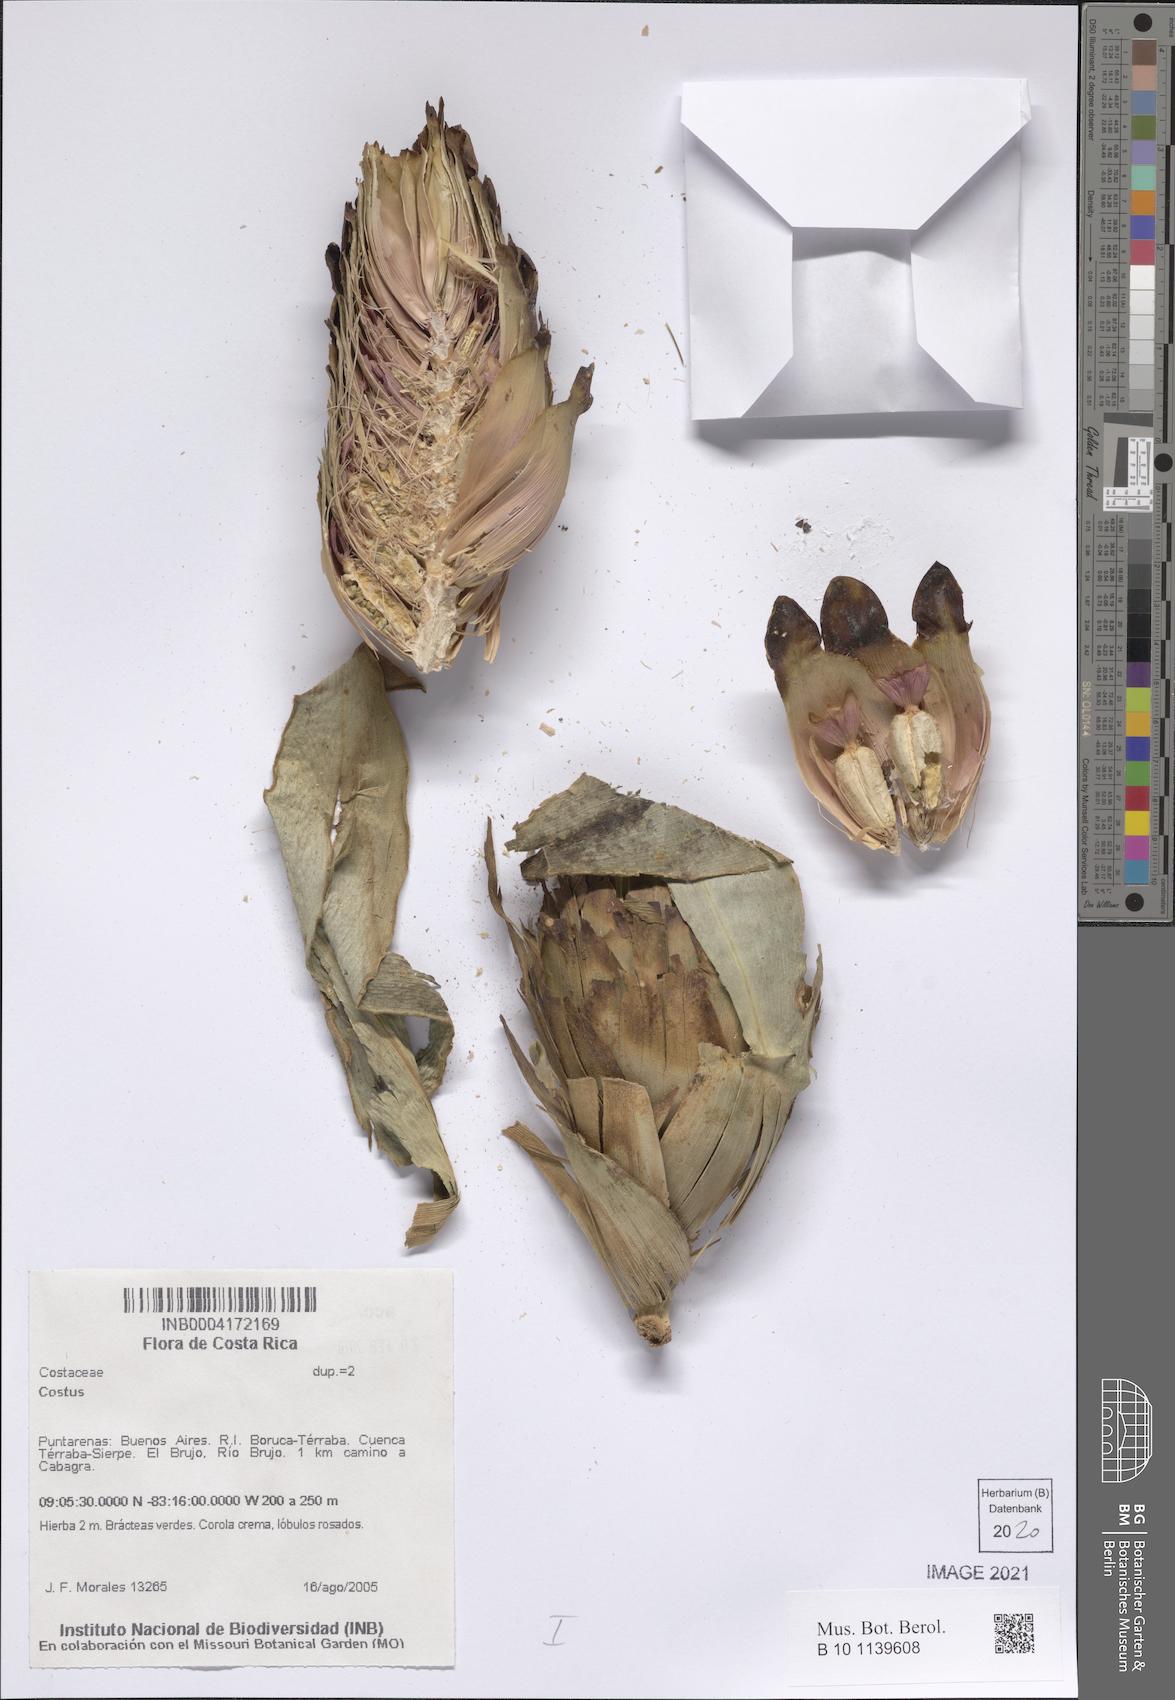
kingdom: Plantae
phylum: Tracheophyta
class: Liliopsida
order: Zingiberales
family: Costaceae
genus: Costus
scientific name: Costus
